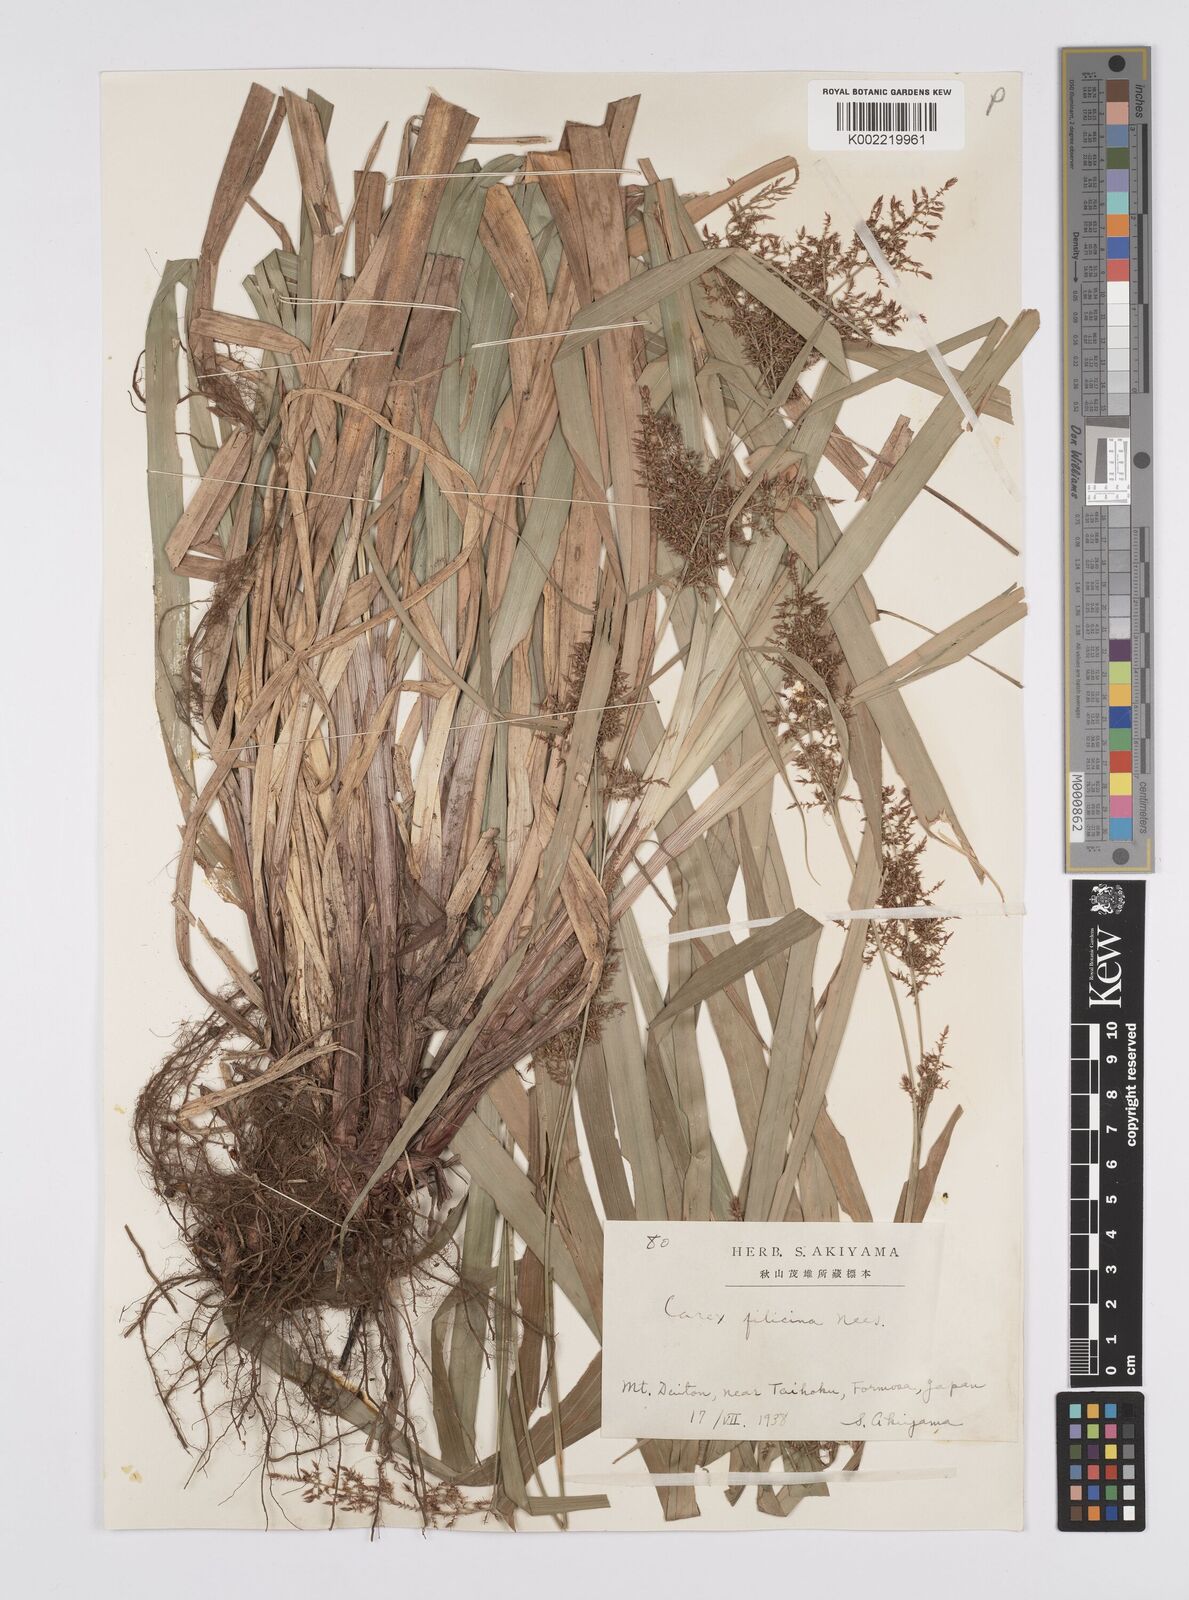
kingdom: Plantae
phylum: Tracheophyta
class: Liliopsida
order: Poales
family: Cyperaceae
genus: Carex
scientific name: Carex filicina
